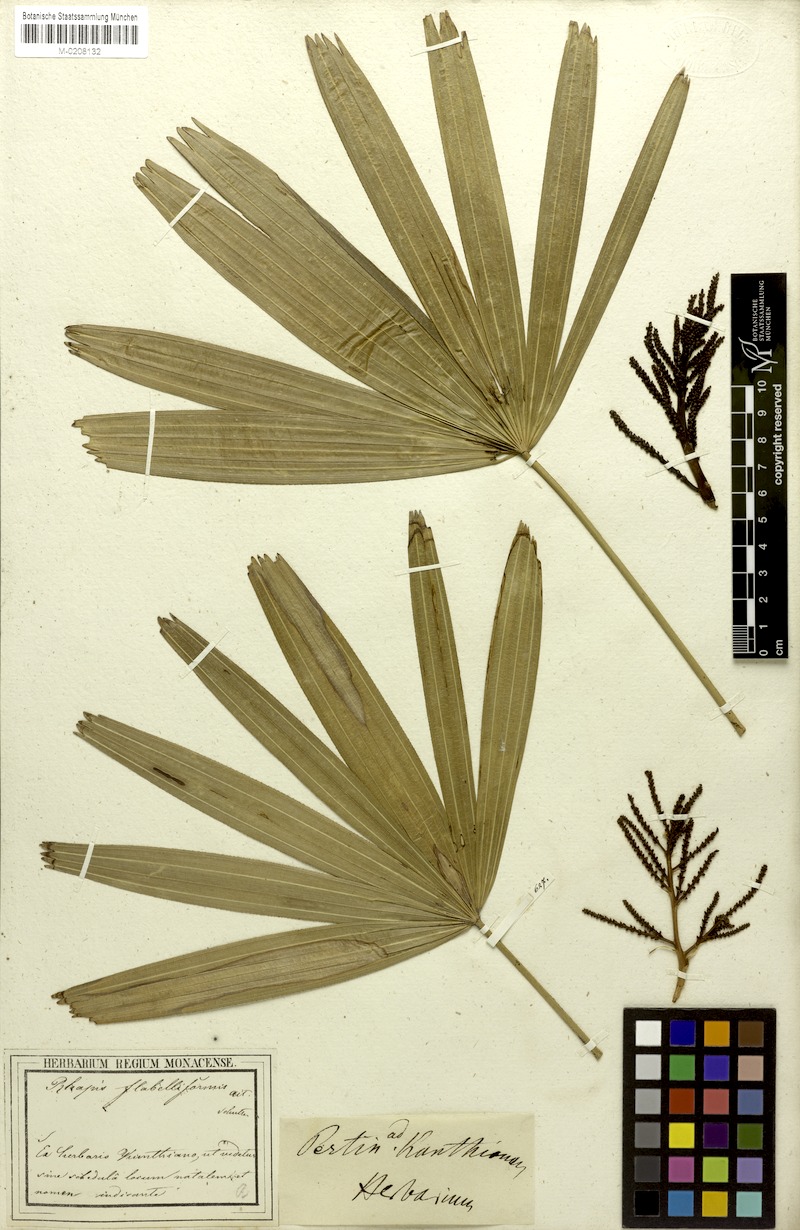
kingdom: Plantae
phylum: Tracheophyta
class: Liliopsida
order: Arecales
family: Arecaceae
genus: Rhapis
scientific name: Rhapis excelsa
